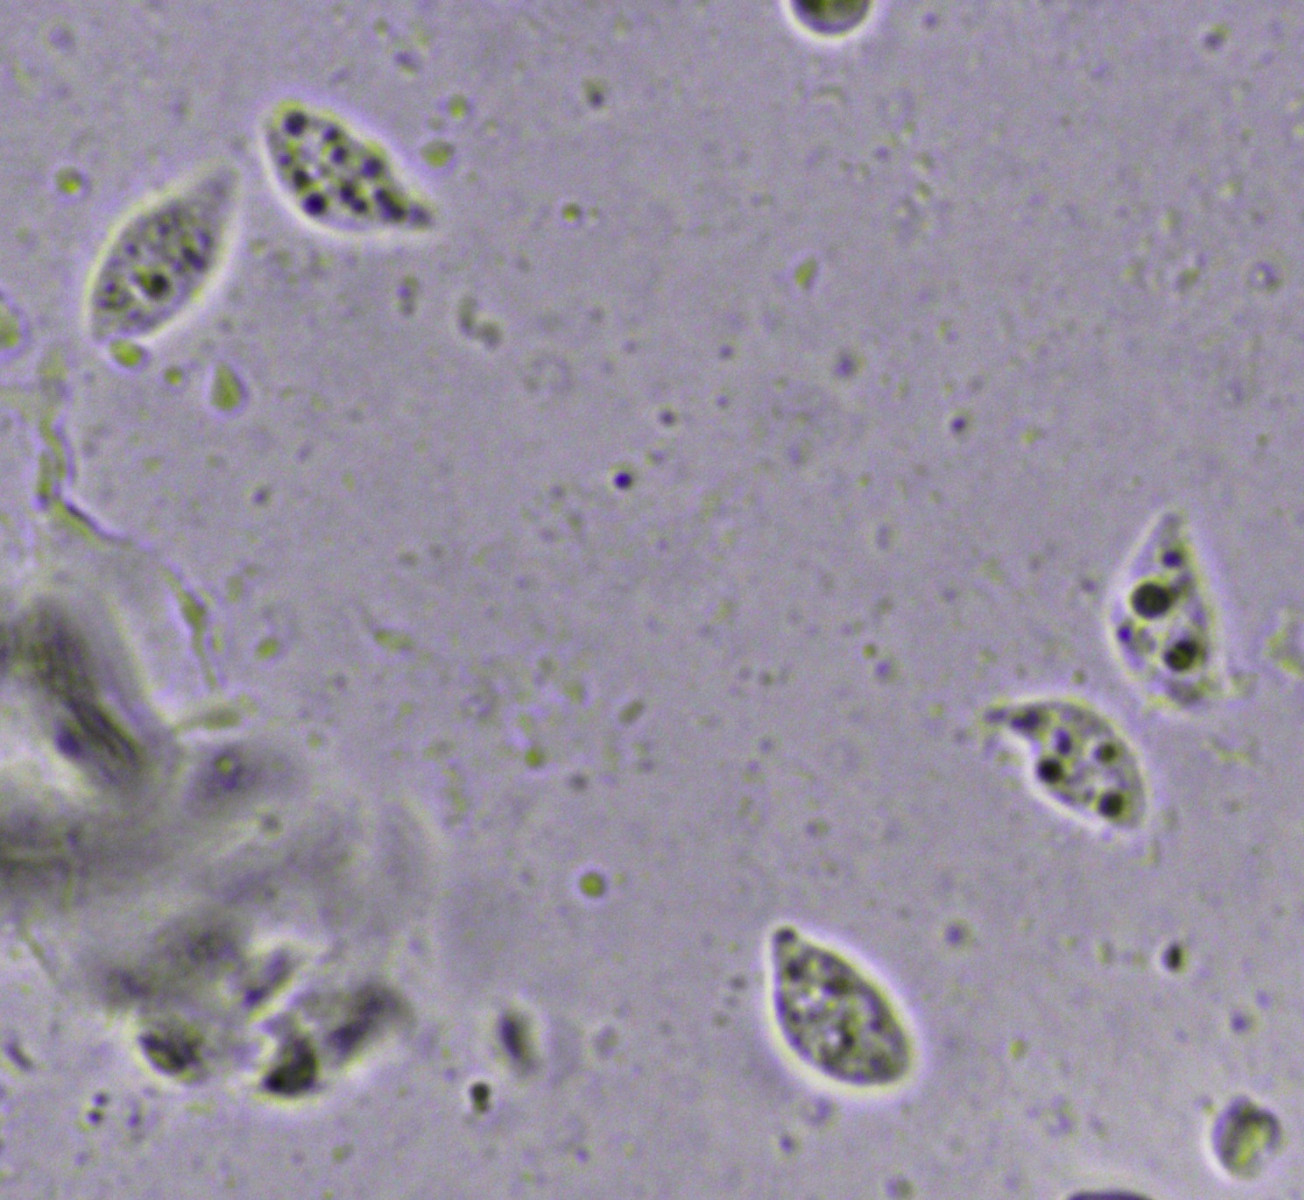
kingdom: Fungi
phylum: Basidiomycota
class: Agaricomycetes
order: Agaricales
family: Physalacriaceae
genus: Rhizomarasmius
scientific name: Rhizomarasmius setosus
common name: bøgeblads-bruskhat
